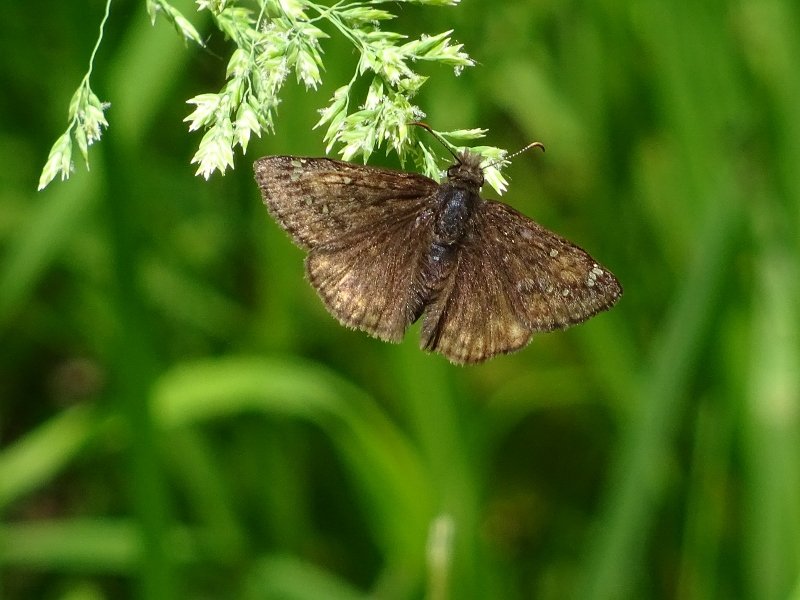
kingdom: Animalia
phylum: Arthropoda
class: Insecta
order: Lepidoptera
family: Hesperiidae
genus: Gesta
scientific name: Gesta
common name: Juvenal's Duskywing
